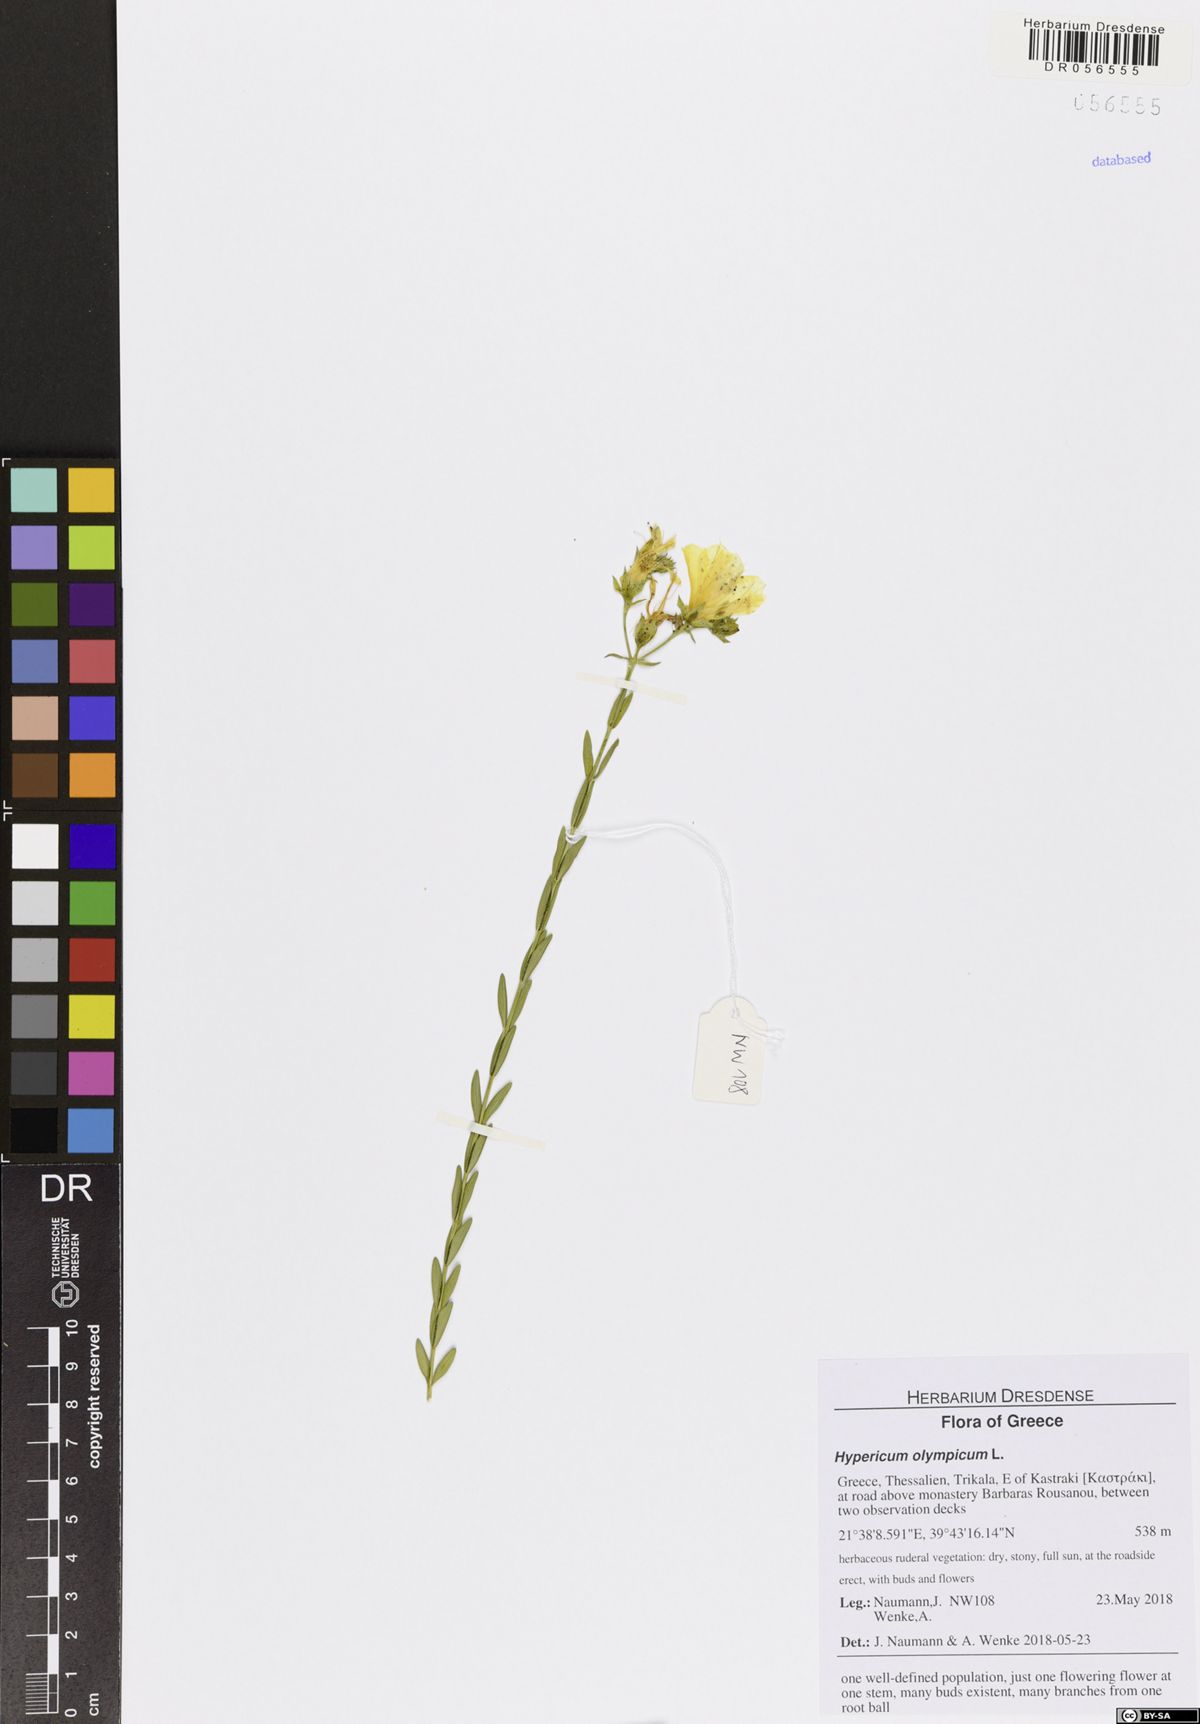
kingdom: Plantae
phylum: Tracheophyta
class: Magnoliopsida
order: Malpighiales
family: Hypericaceae
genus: Hypericum
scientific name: Hypericum olympicum
